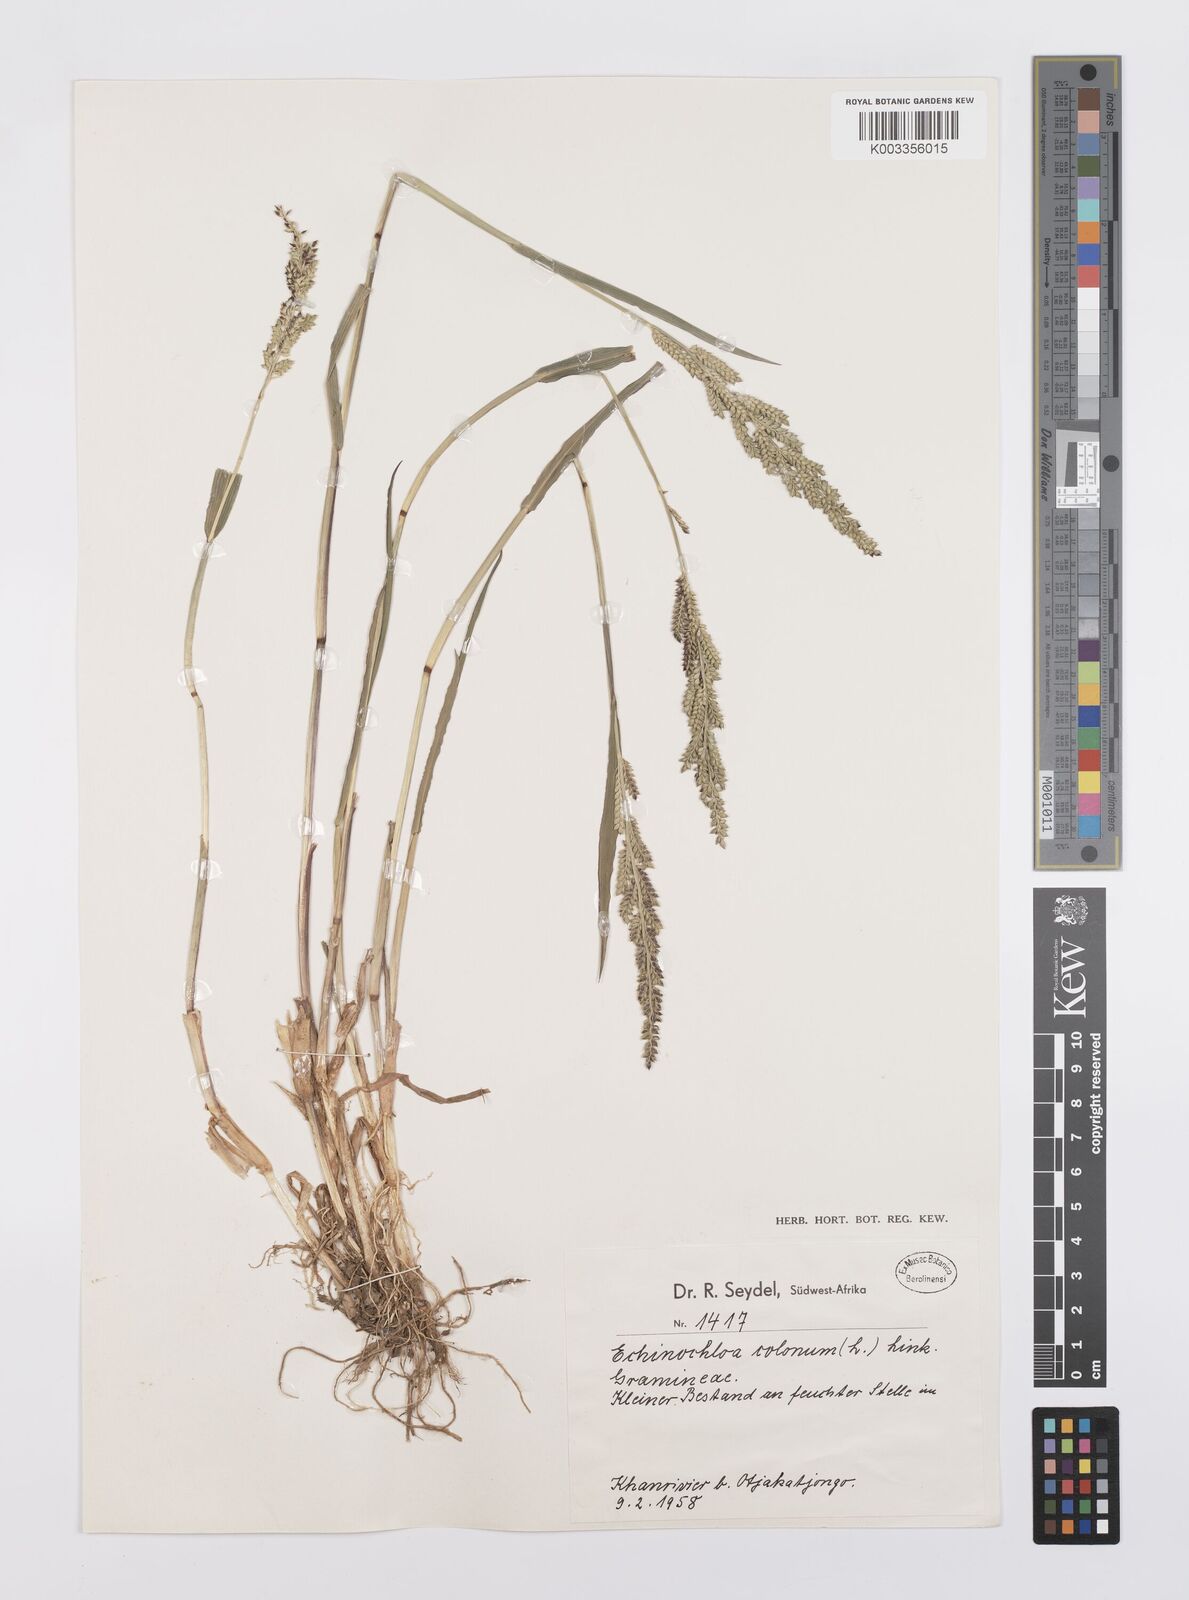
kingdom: Plantae
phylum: Tracheophyta
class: Liliopsida
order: Poales
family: Poaceae
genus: Echinochloa
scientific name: Echinochloa colonum
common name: Jungle rice
